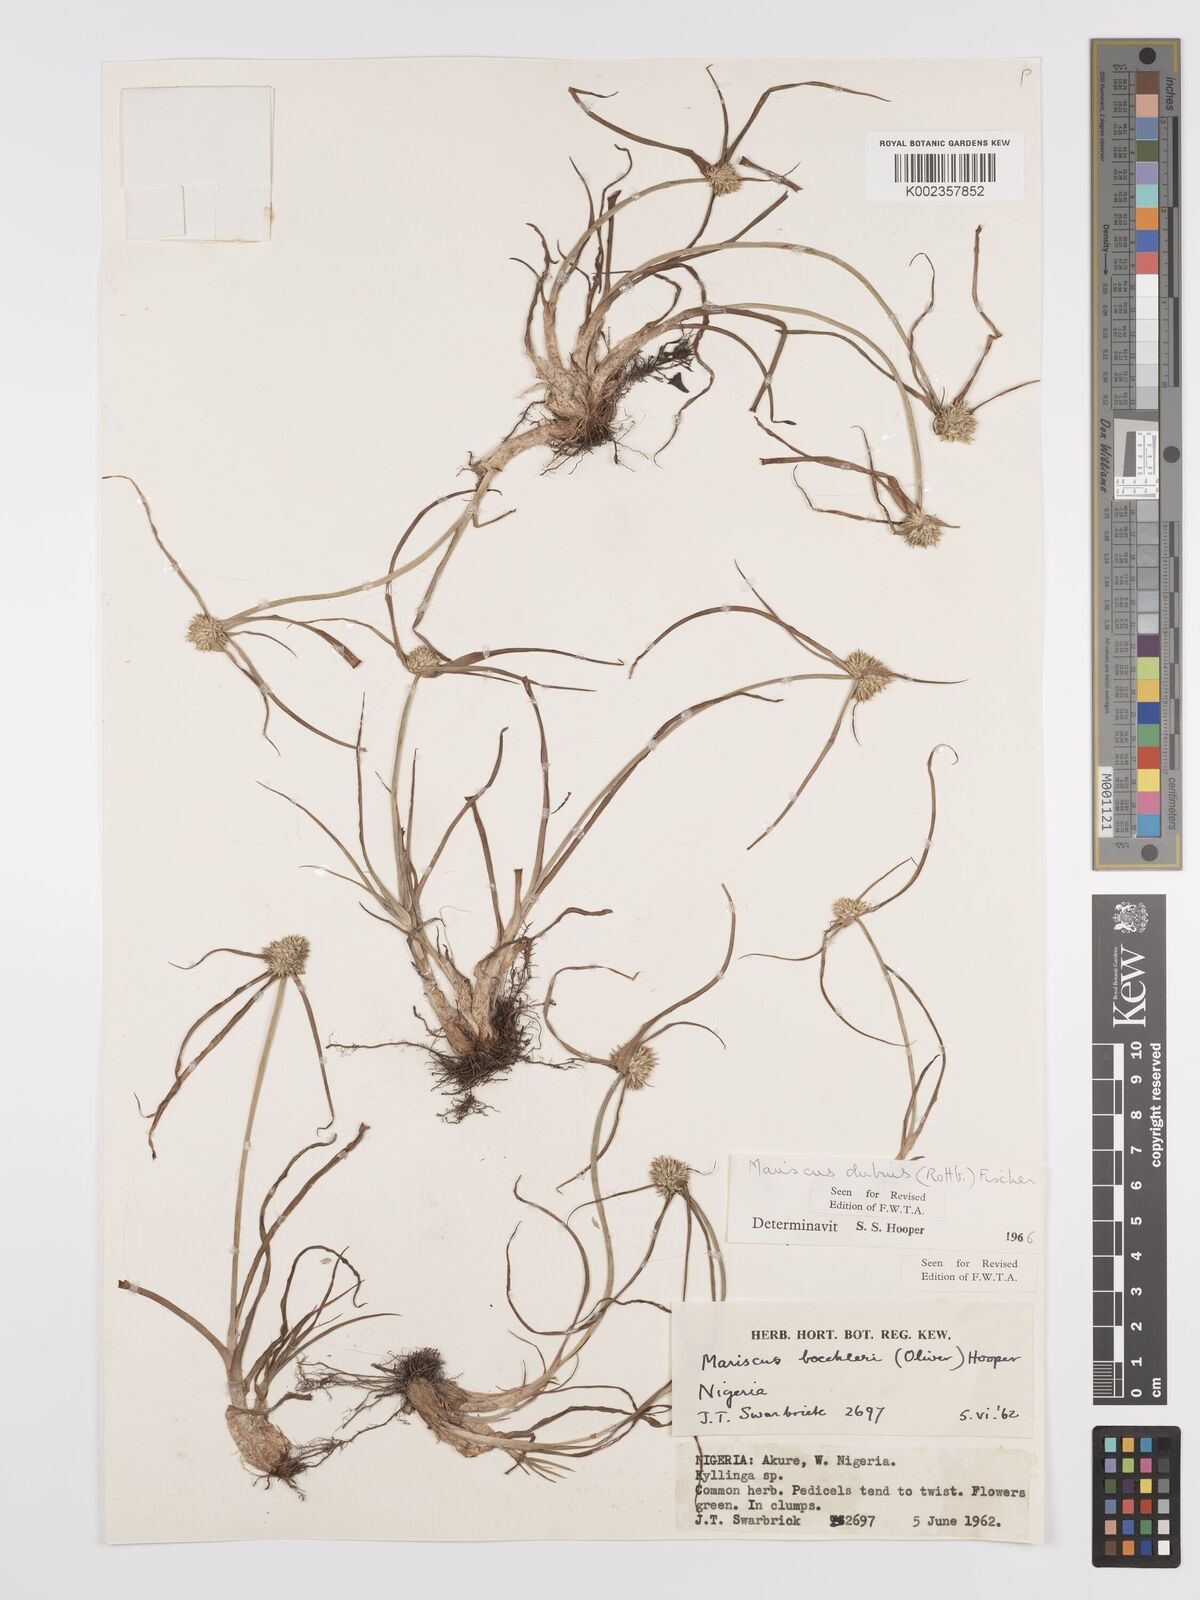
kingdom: Plantae
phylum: Tracheophyta
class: Liliopsida
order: Poales
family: Cyperaceae
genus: Cyperus
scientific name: Cyperus dubius
